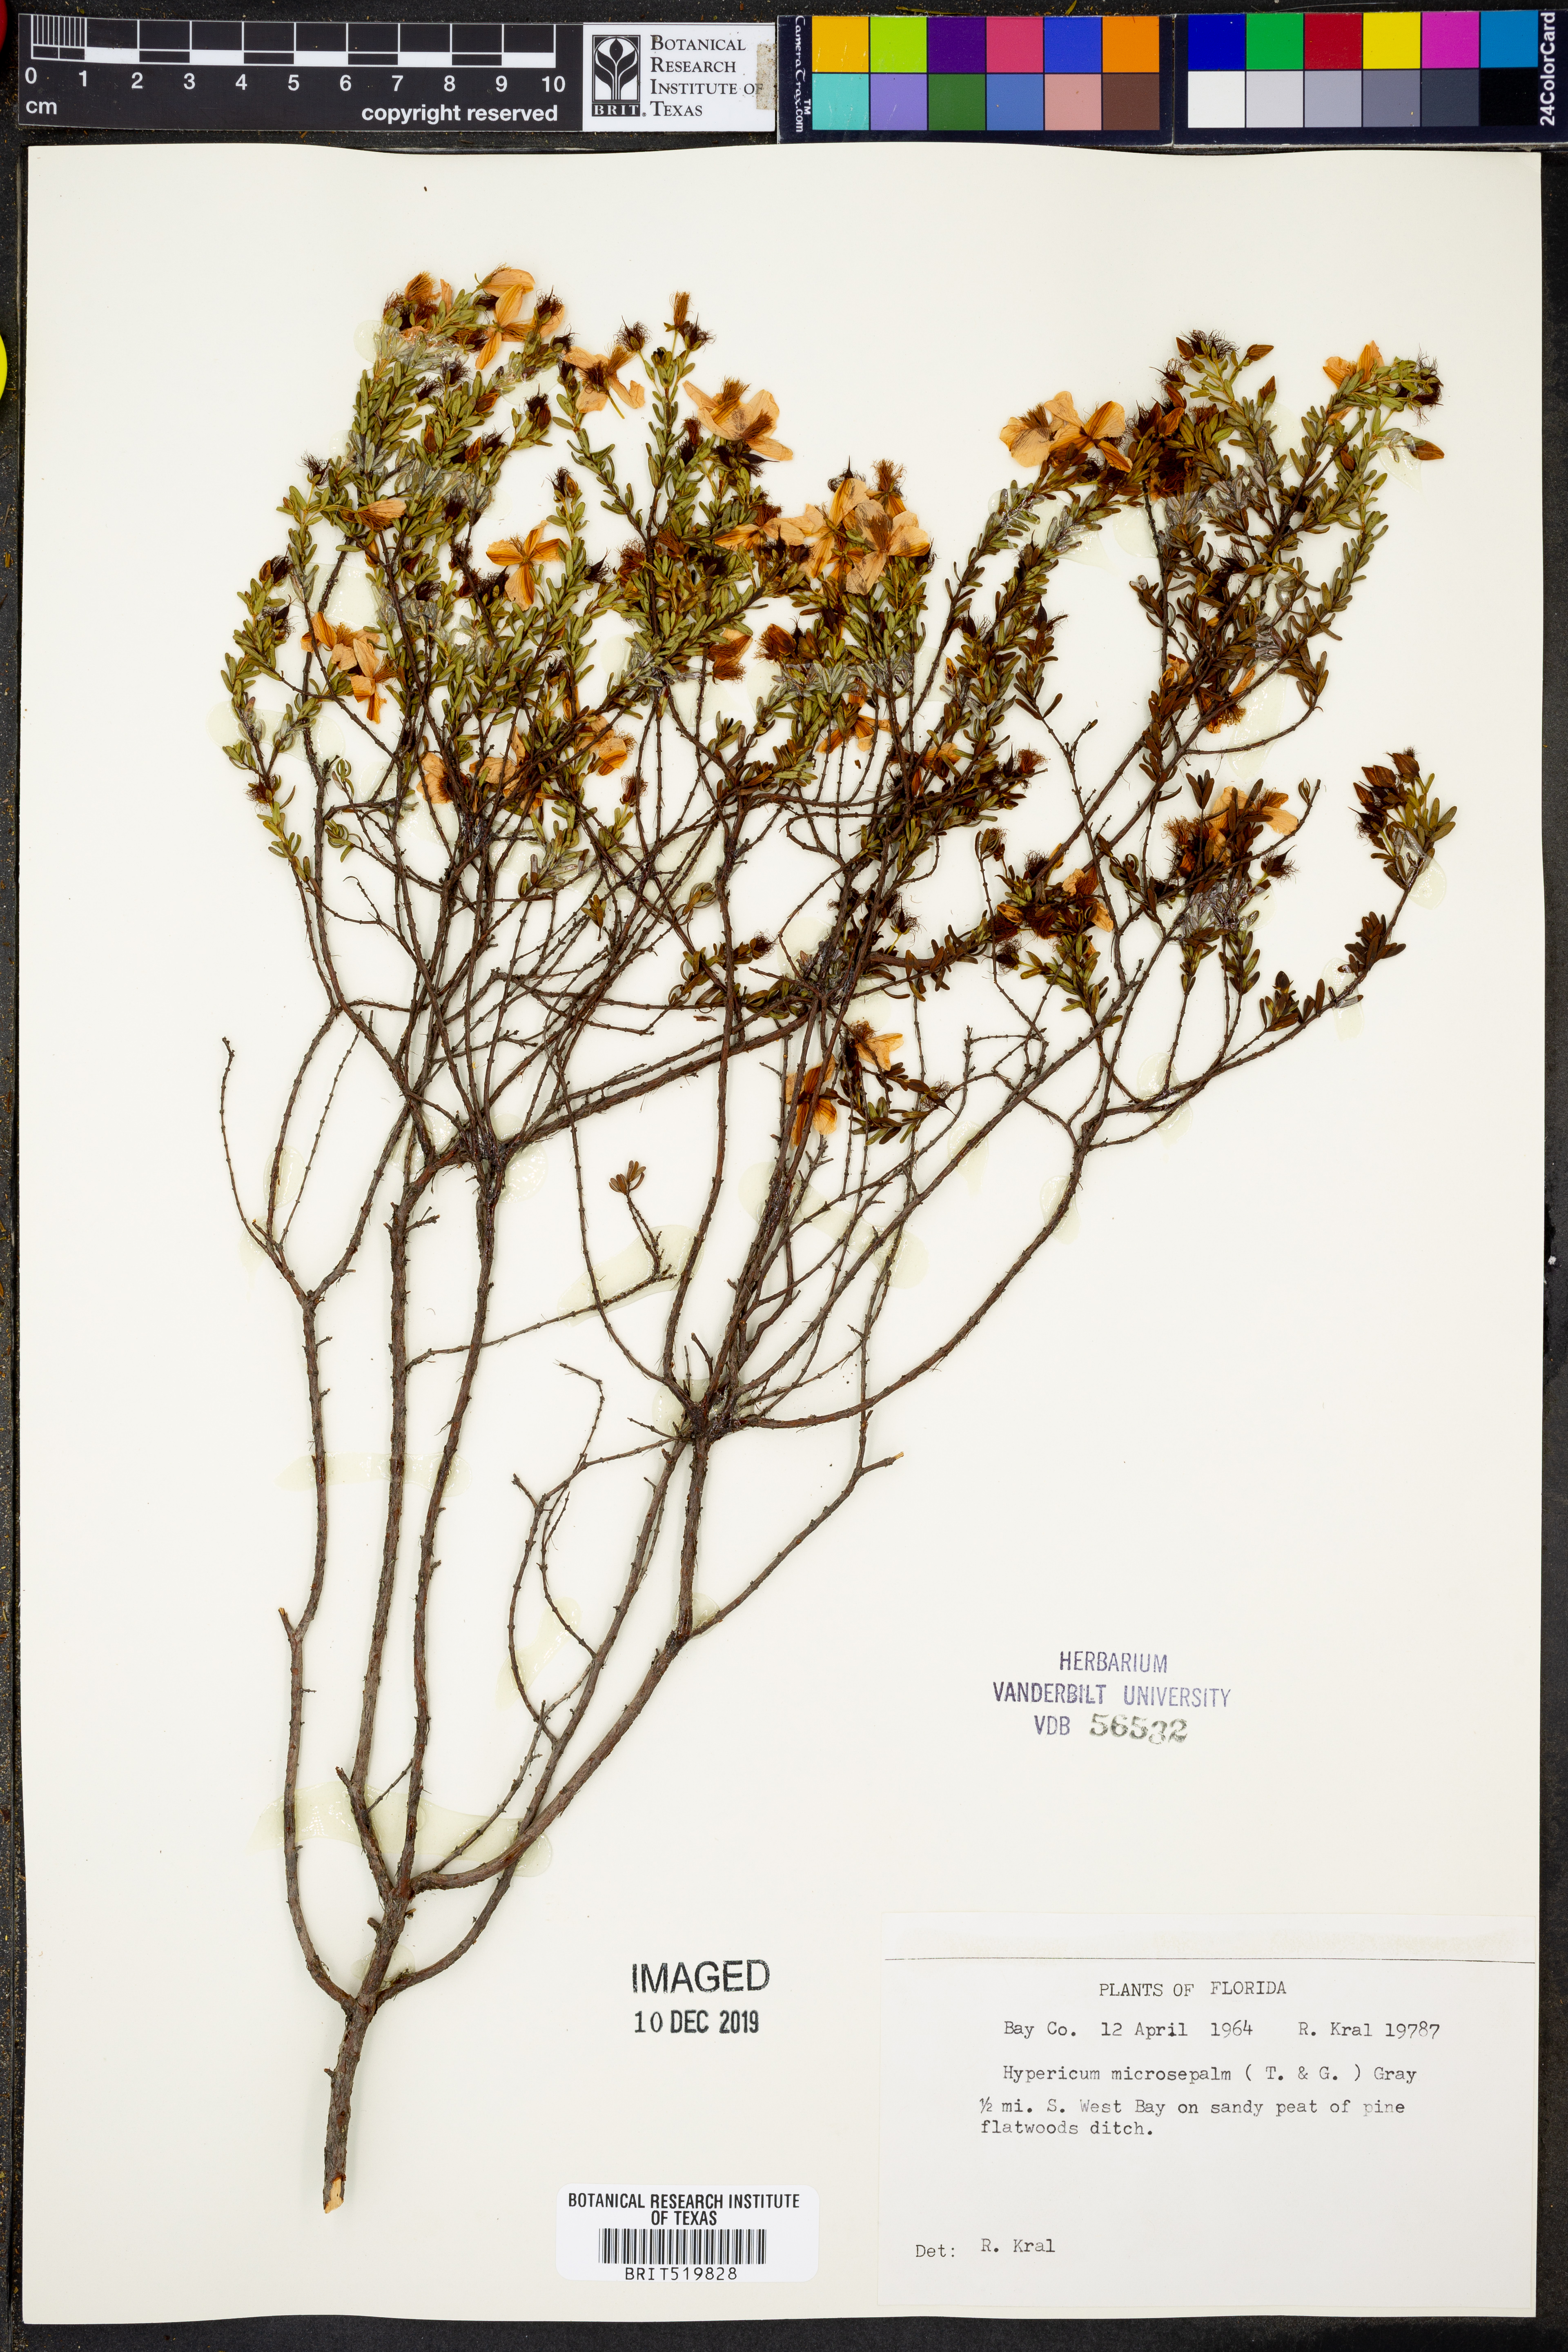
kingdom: Plantae
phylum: Tracheophyta
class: Magnoliopsida
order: Malpighiales
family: Hypericaceae
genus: Hypericum
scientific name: Hypericum microsepalum
